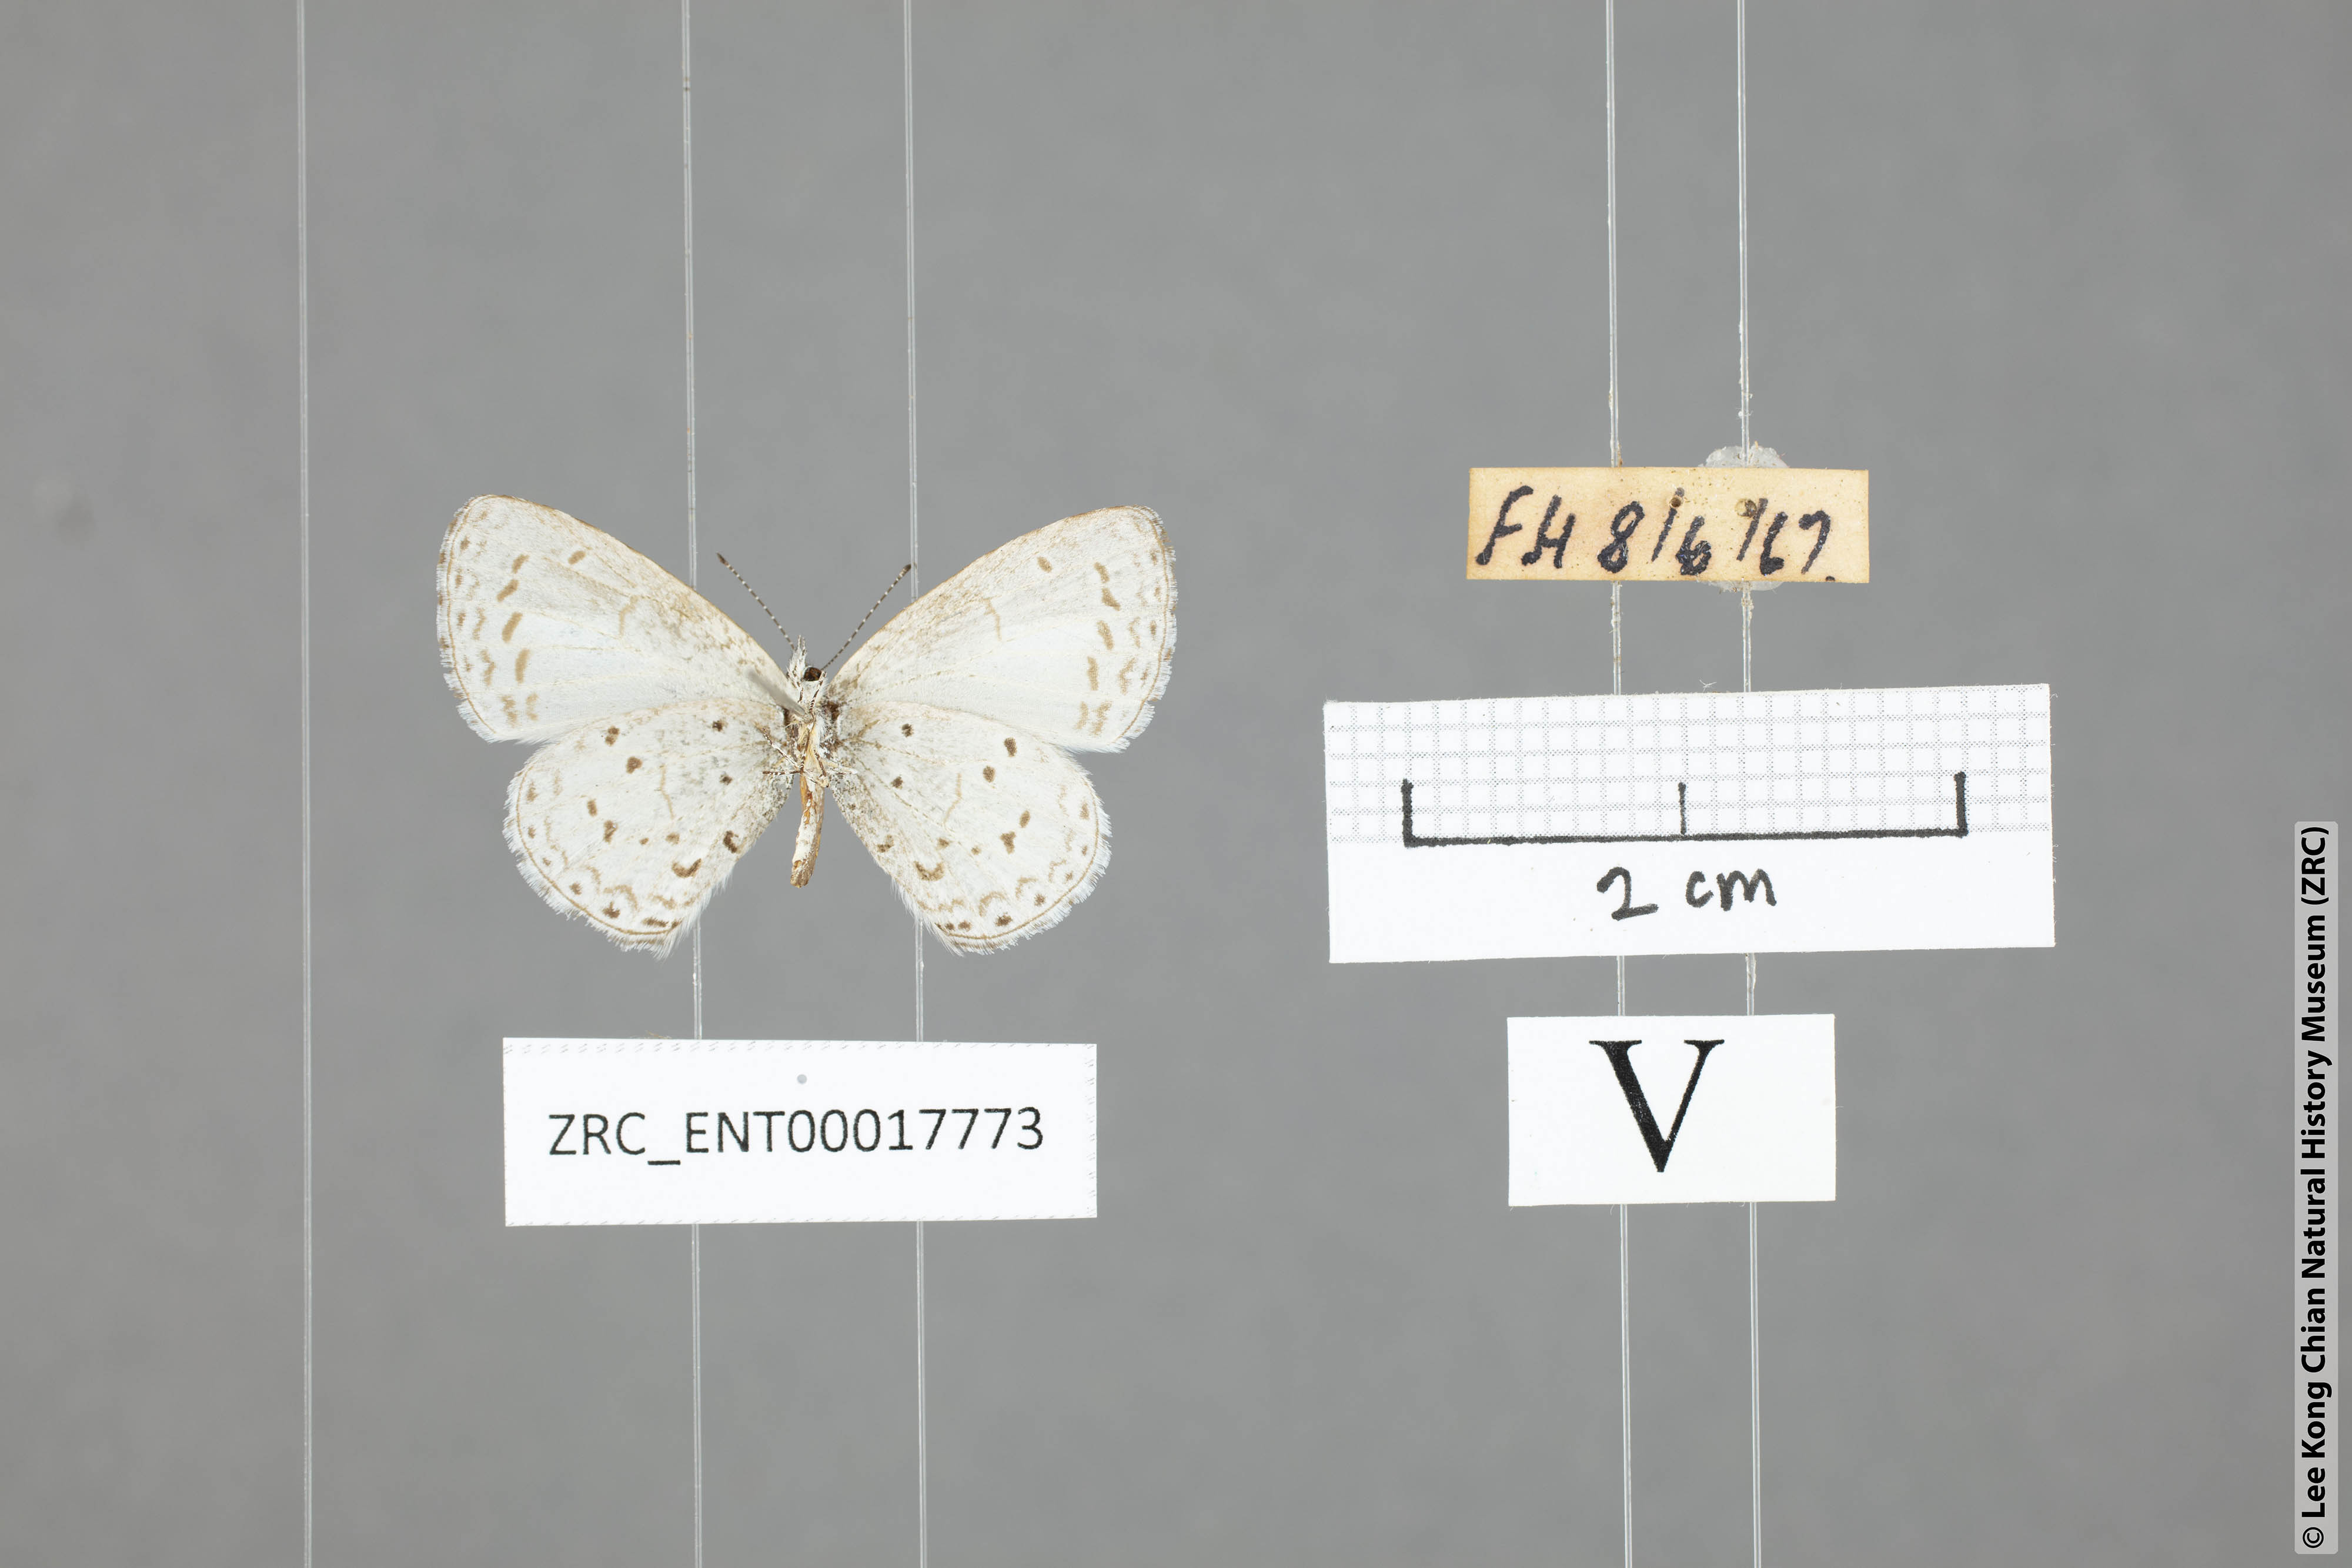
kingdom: Animalia
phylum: Arthropoda
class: Insecta
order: Lepidoptera
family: Lycaenidae
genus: Udara
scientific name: Udara dilectus
